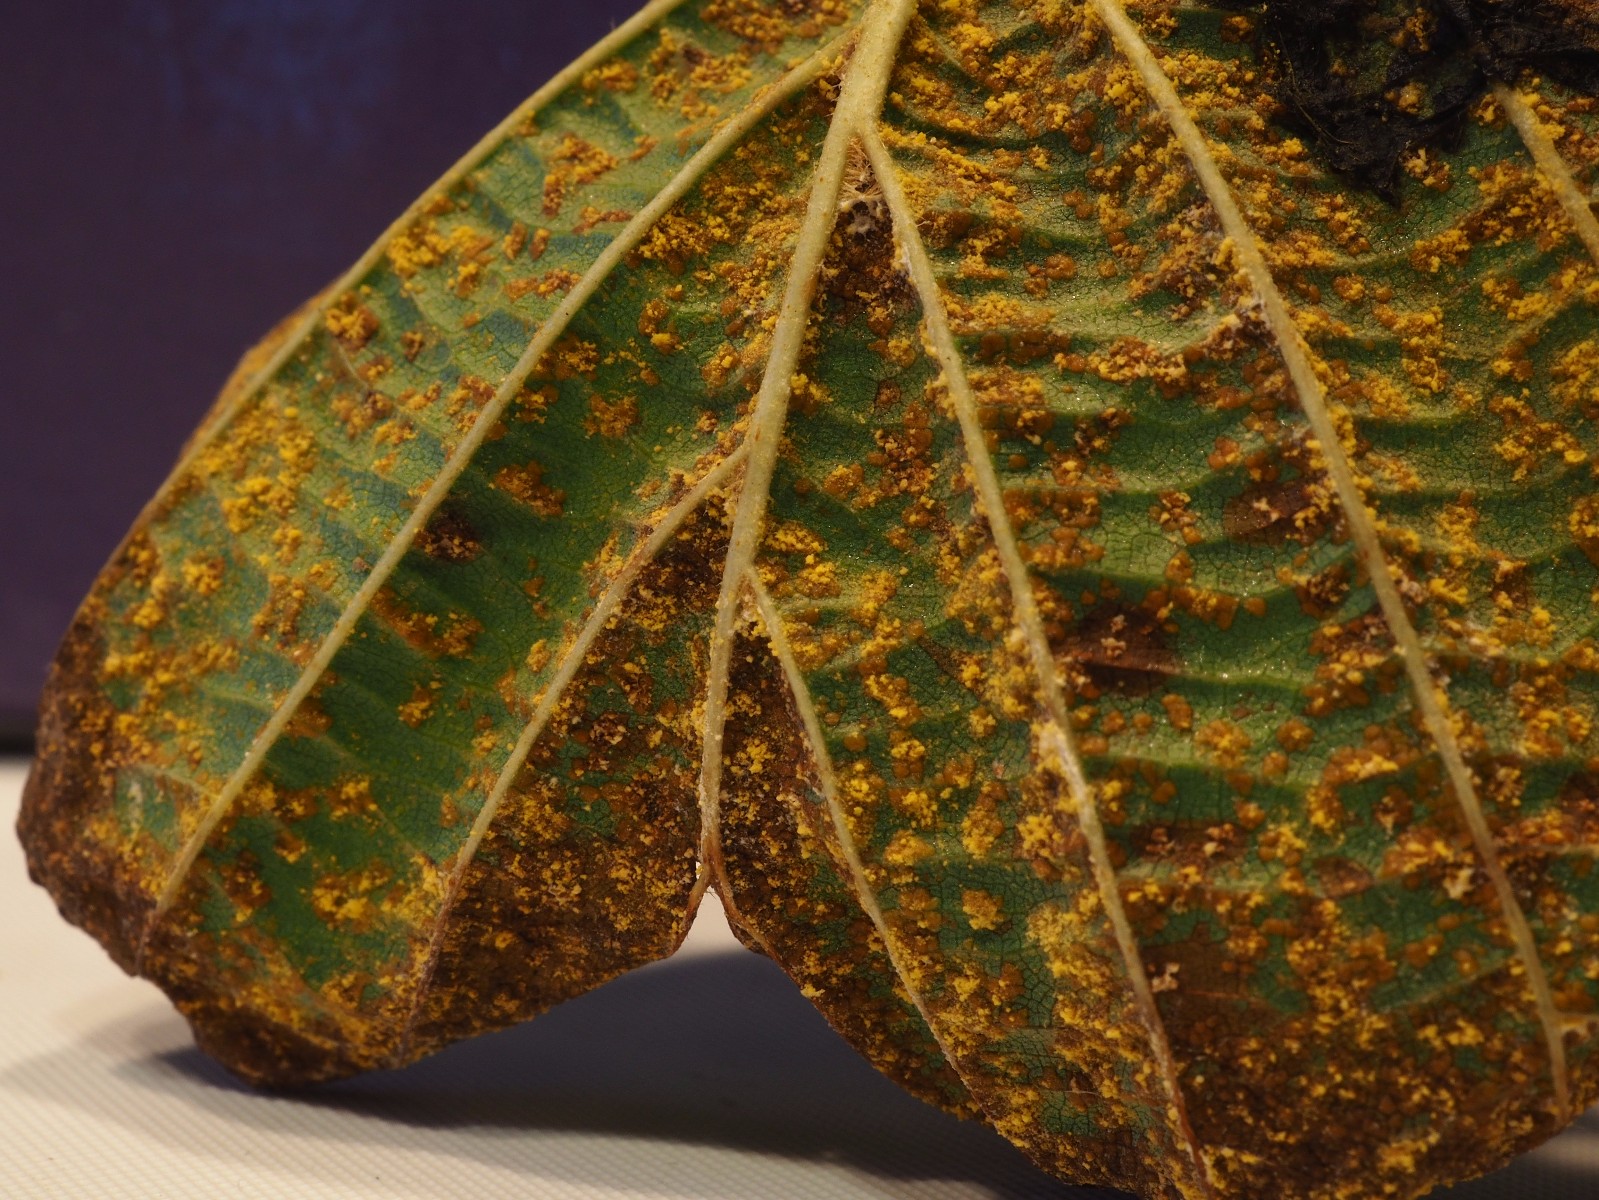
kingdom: Fungi
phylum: Basidiomycota
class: Pucciniomycetes
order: Pucciniales
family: Pucciniastraceae
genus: Melampsoridium
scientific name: Melampsoridium betulinum
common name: Birch rust
